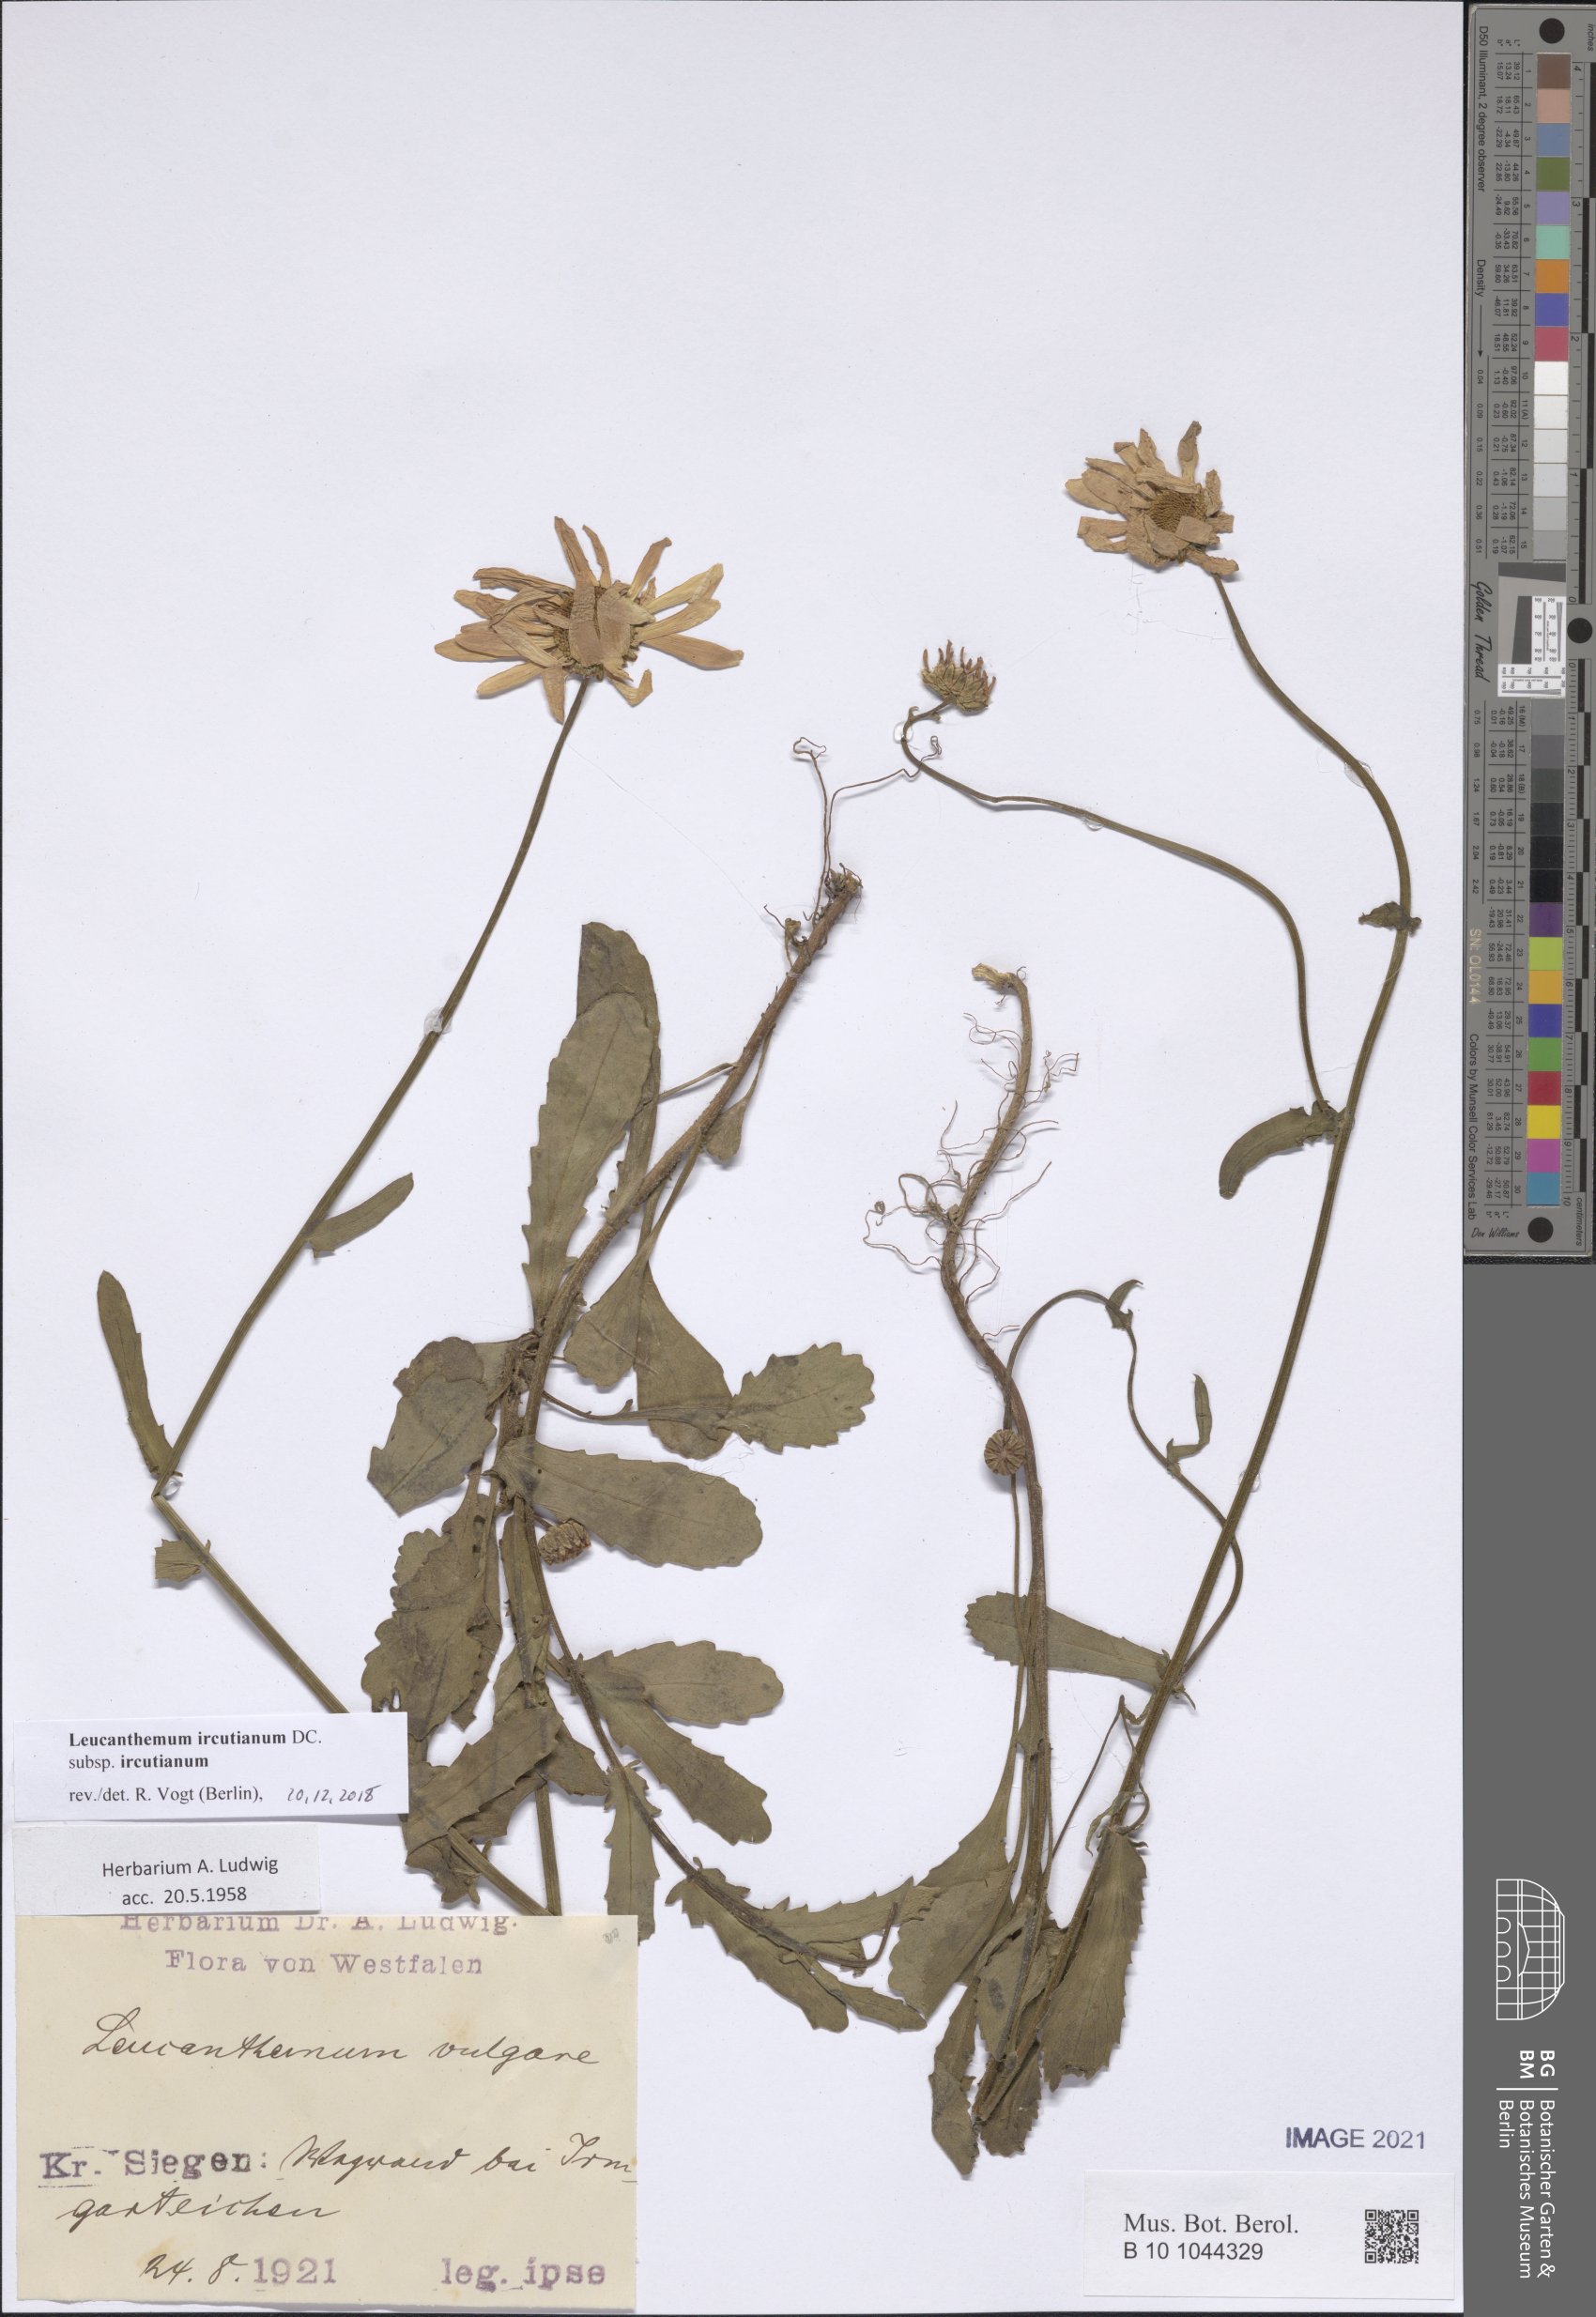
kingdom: Plantae
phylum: Tracheophyta
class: Magnoliopsida
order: Asterales
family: Asteraceae
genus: Leucanthemum
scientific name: Leucanthemum ircutianum
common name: Daisy
